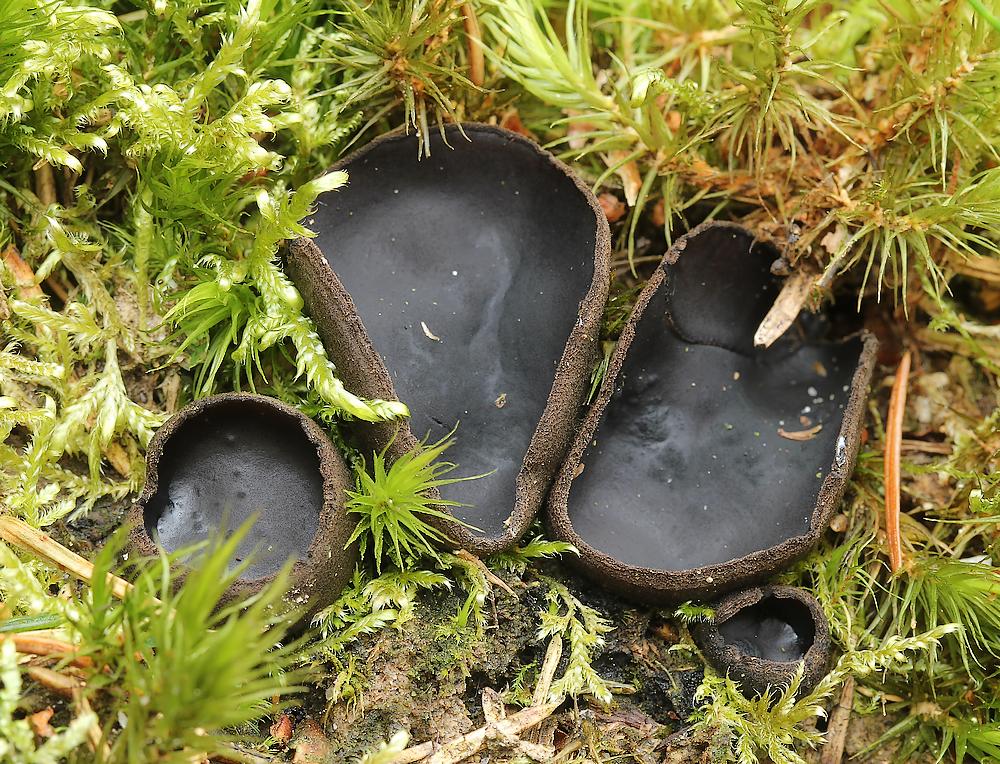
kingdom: Fungi
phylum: Ascomycota
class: Pezizomycetes
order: Pezizales
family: Sarcosomataceae
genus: Pseudoplectania
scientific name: Pseudoplectania nigrella
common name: almindelig sortbæger
